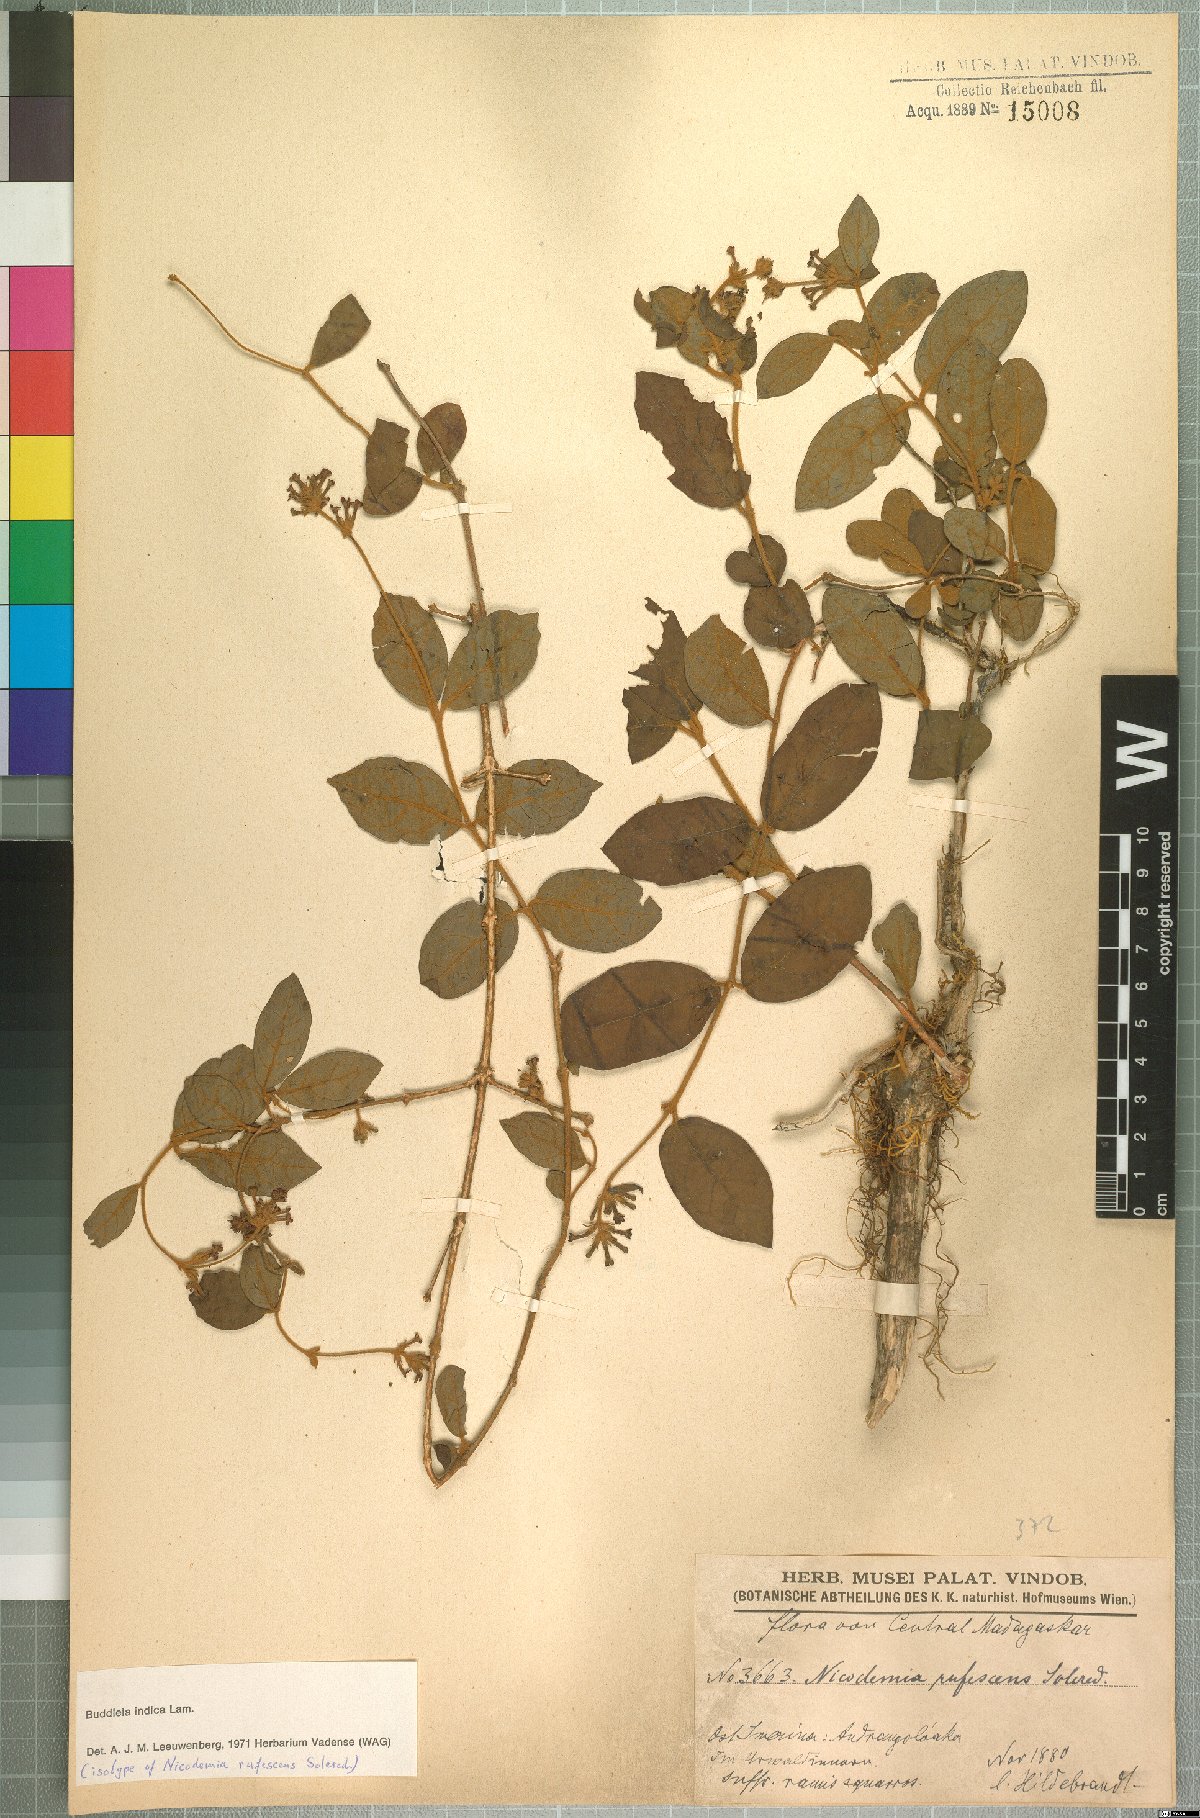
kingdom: Plantae
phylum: Tracheophyta
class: Magnoliopsida
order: Lamiales
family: Scrophulariaceae
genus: Buddleja
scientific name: Buddleja indica
